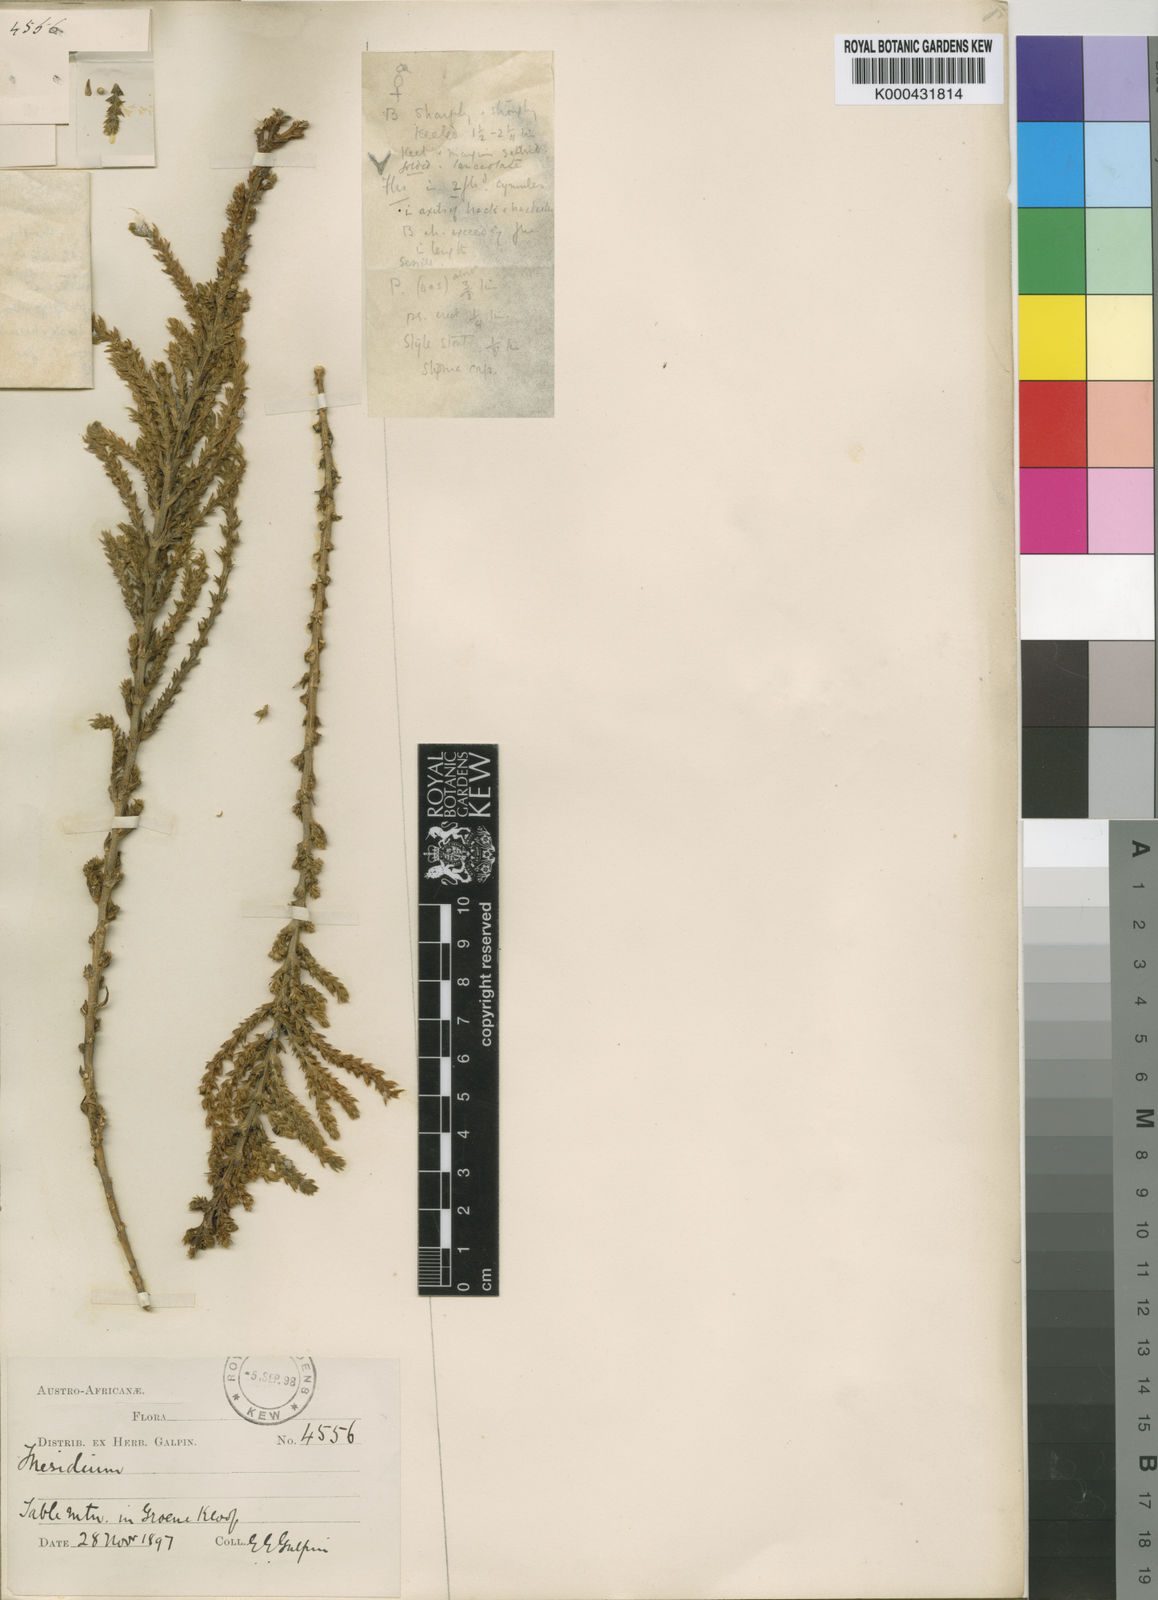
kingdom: Plantae
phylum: Tracheophyta
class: Magnoliopsida
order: Santalales
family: Thesiaceae
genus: Thesium
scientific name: Thesium fruticulosum
